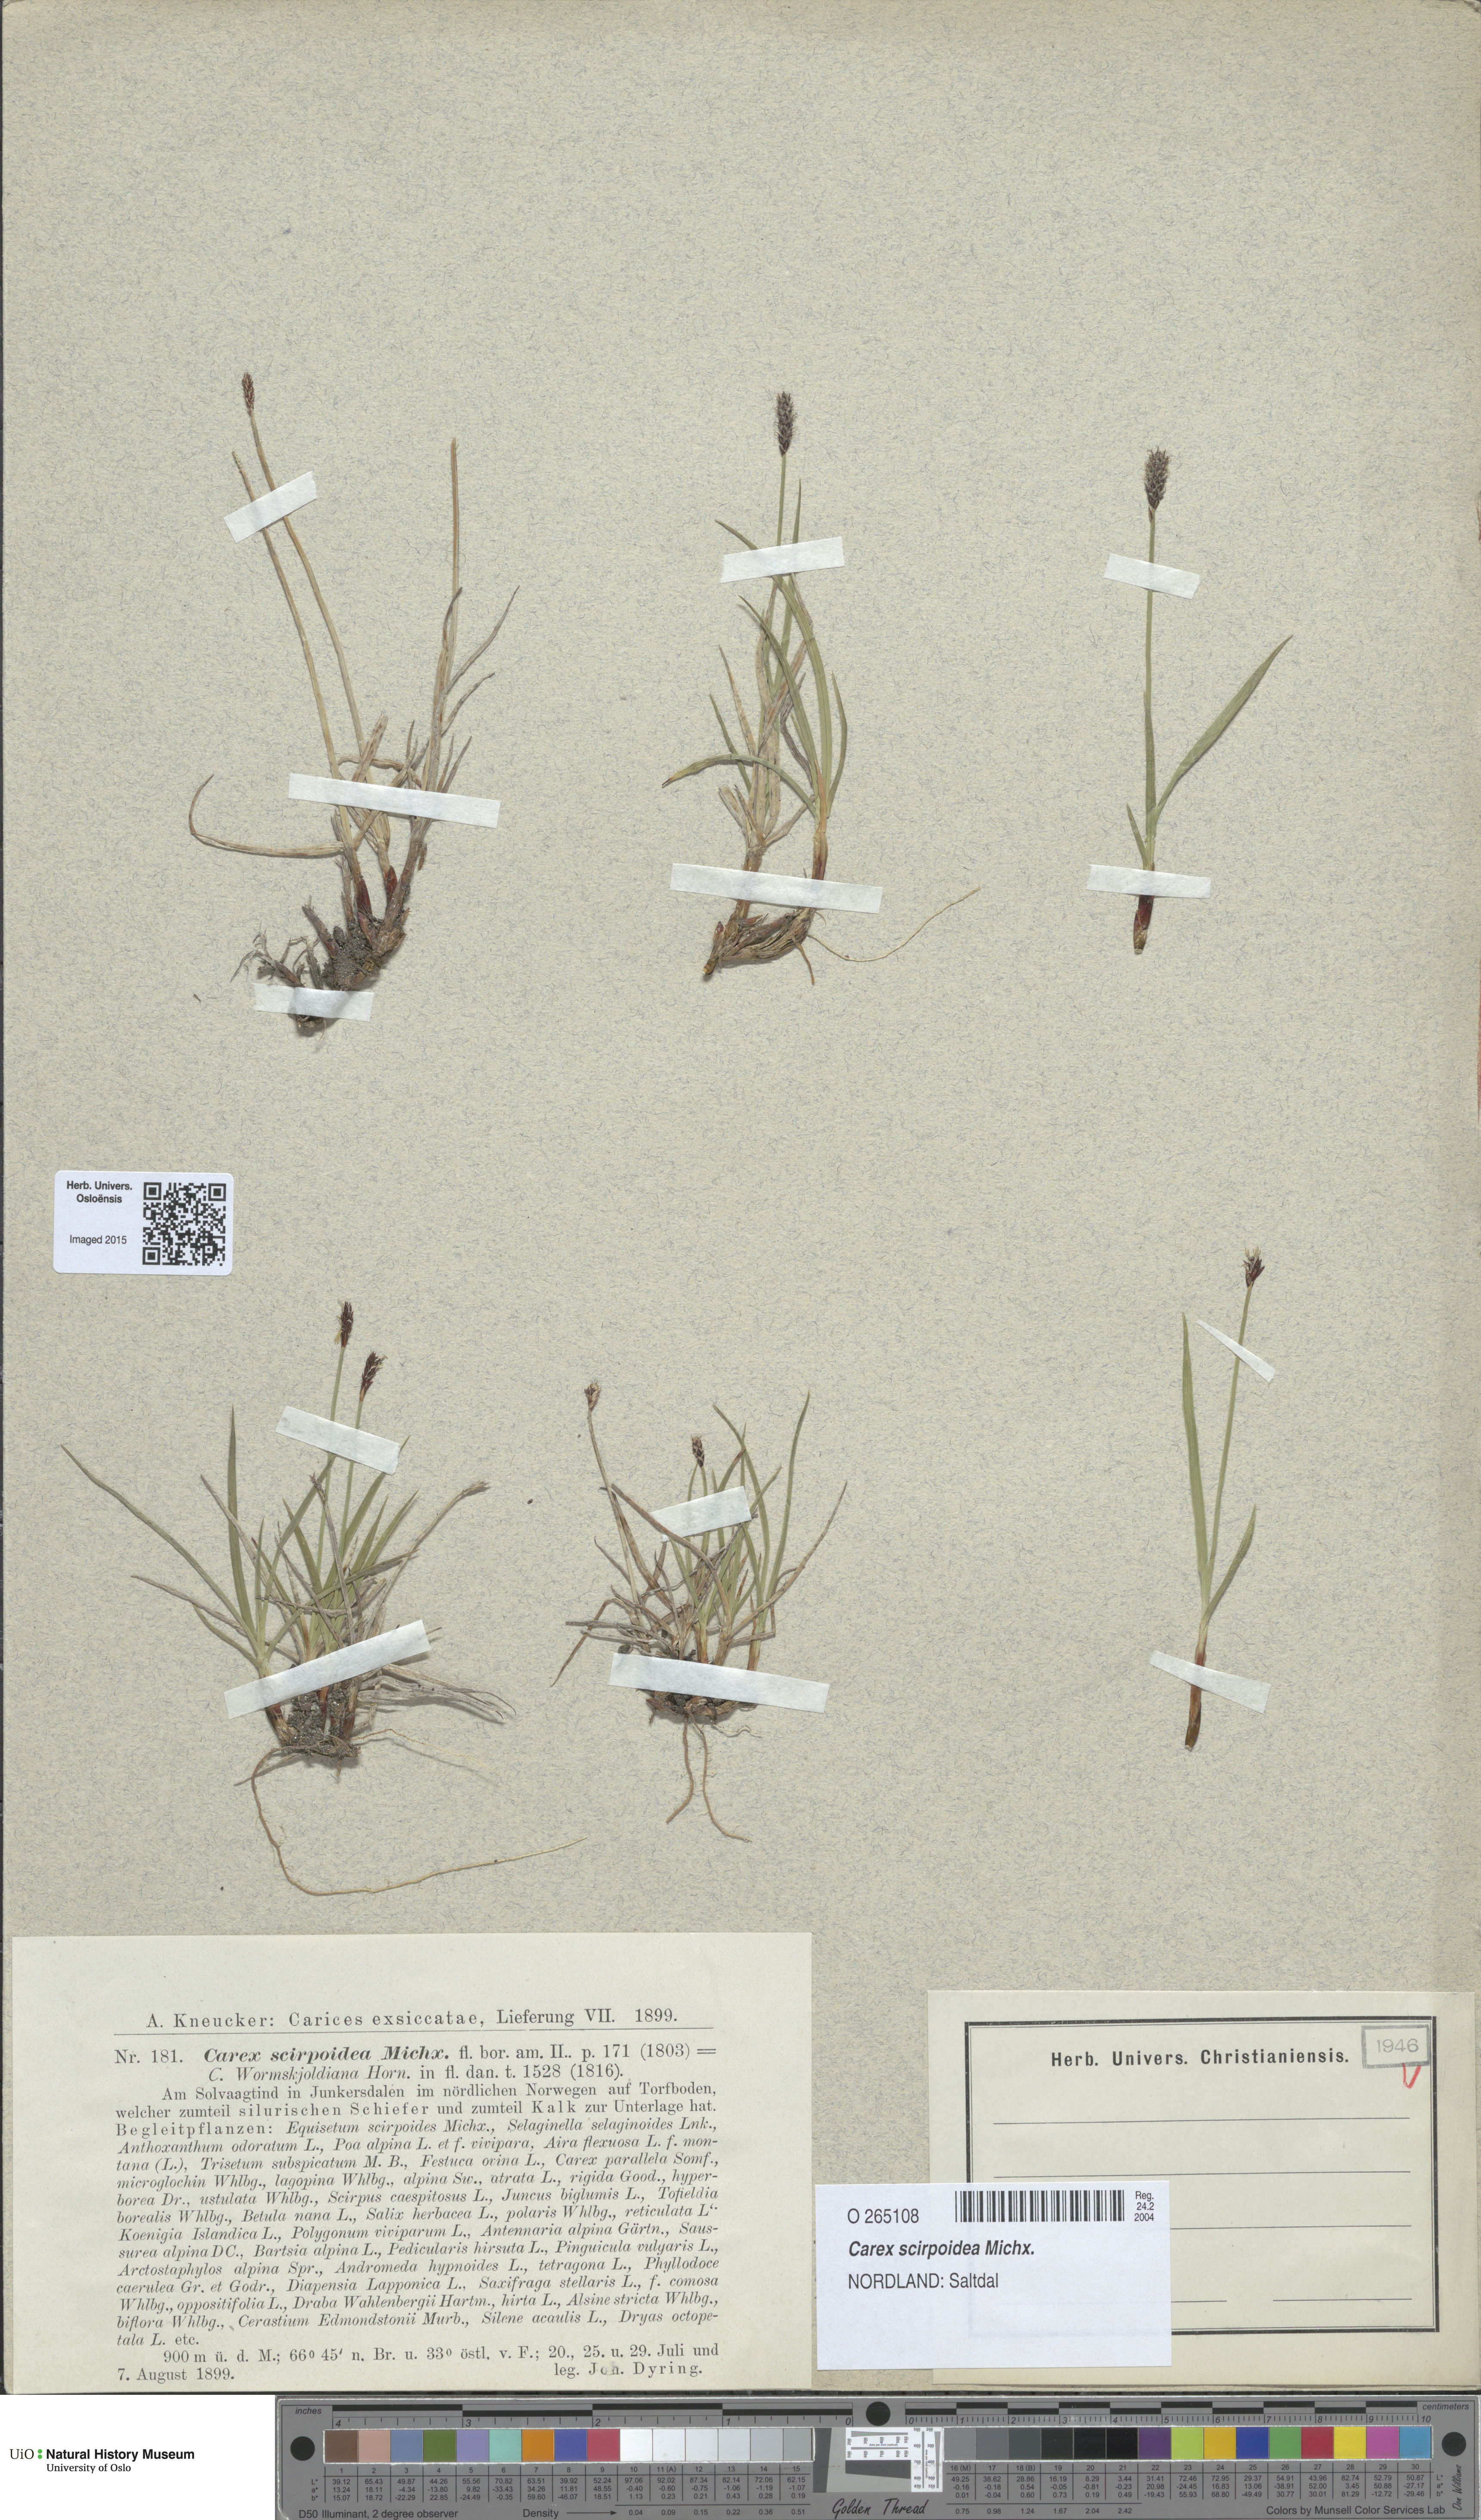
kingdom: Plantae
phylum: Tracheophyta
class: Liliopsida
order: Poales
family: Cyperaceae
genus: Carex
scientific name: Carex scirpoidea
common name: Canada single-spike sedge
